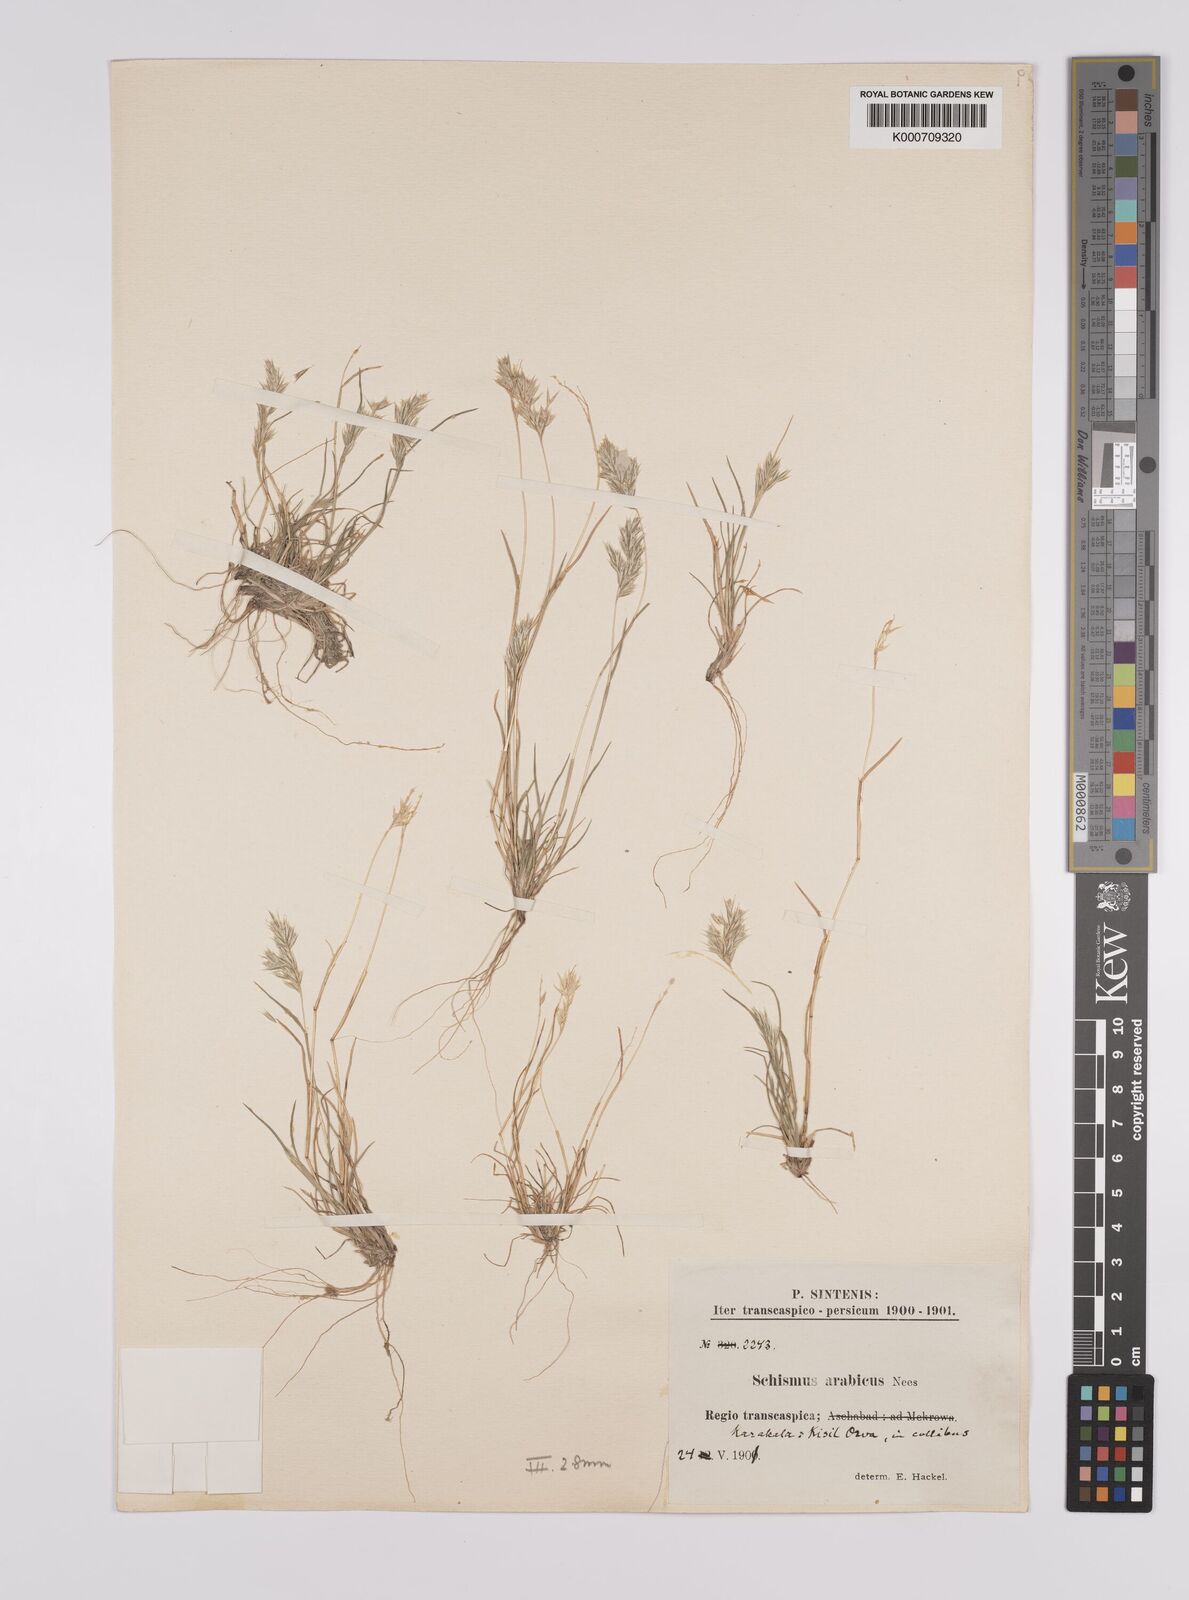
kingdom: Plantae
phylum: Tracheophyta
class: Liliopsida
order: Poales
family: Poaceae
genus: Schismus
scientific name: Schismus arabicus
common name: Arabian schismus
